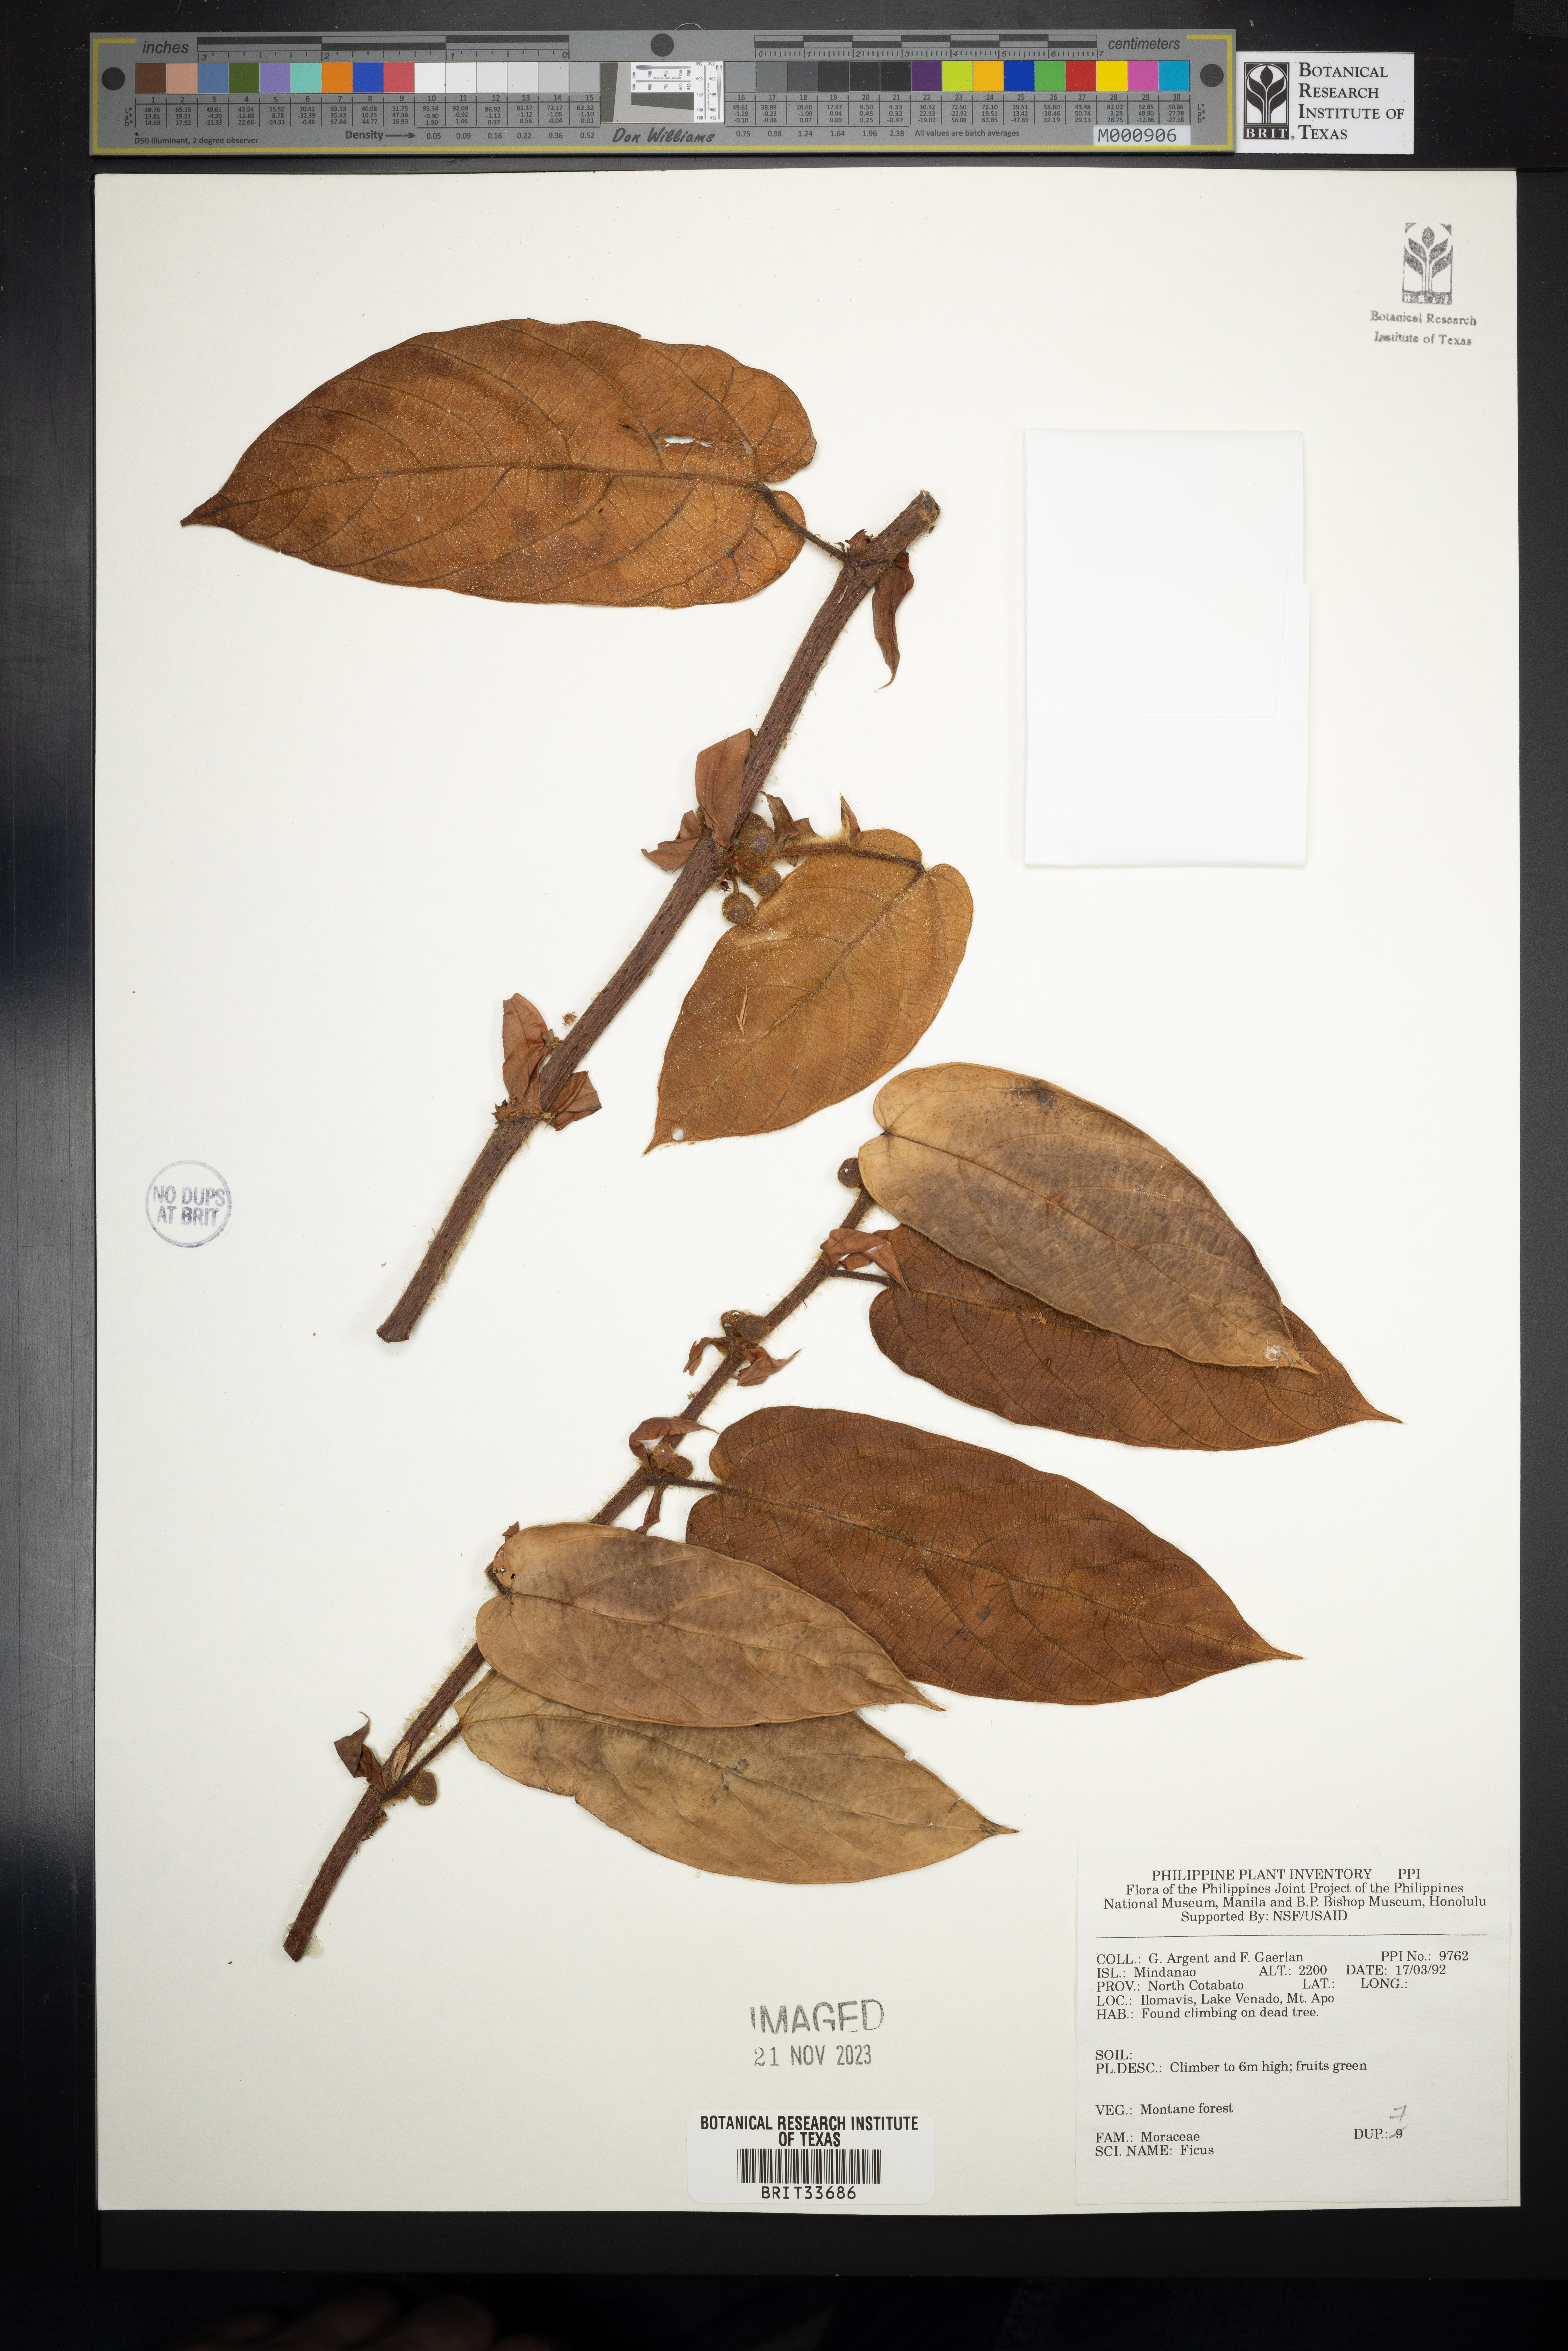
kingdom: Plantae
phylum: Tracheophyta
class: Magnoliopsida
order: Rosales
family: Moraceae
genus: Ficus
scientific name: Ficus
